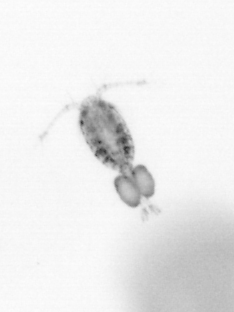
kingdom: Animalia
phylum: Arthropoda
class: Copepoda
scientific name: Copepoda
